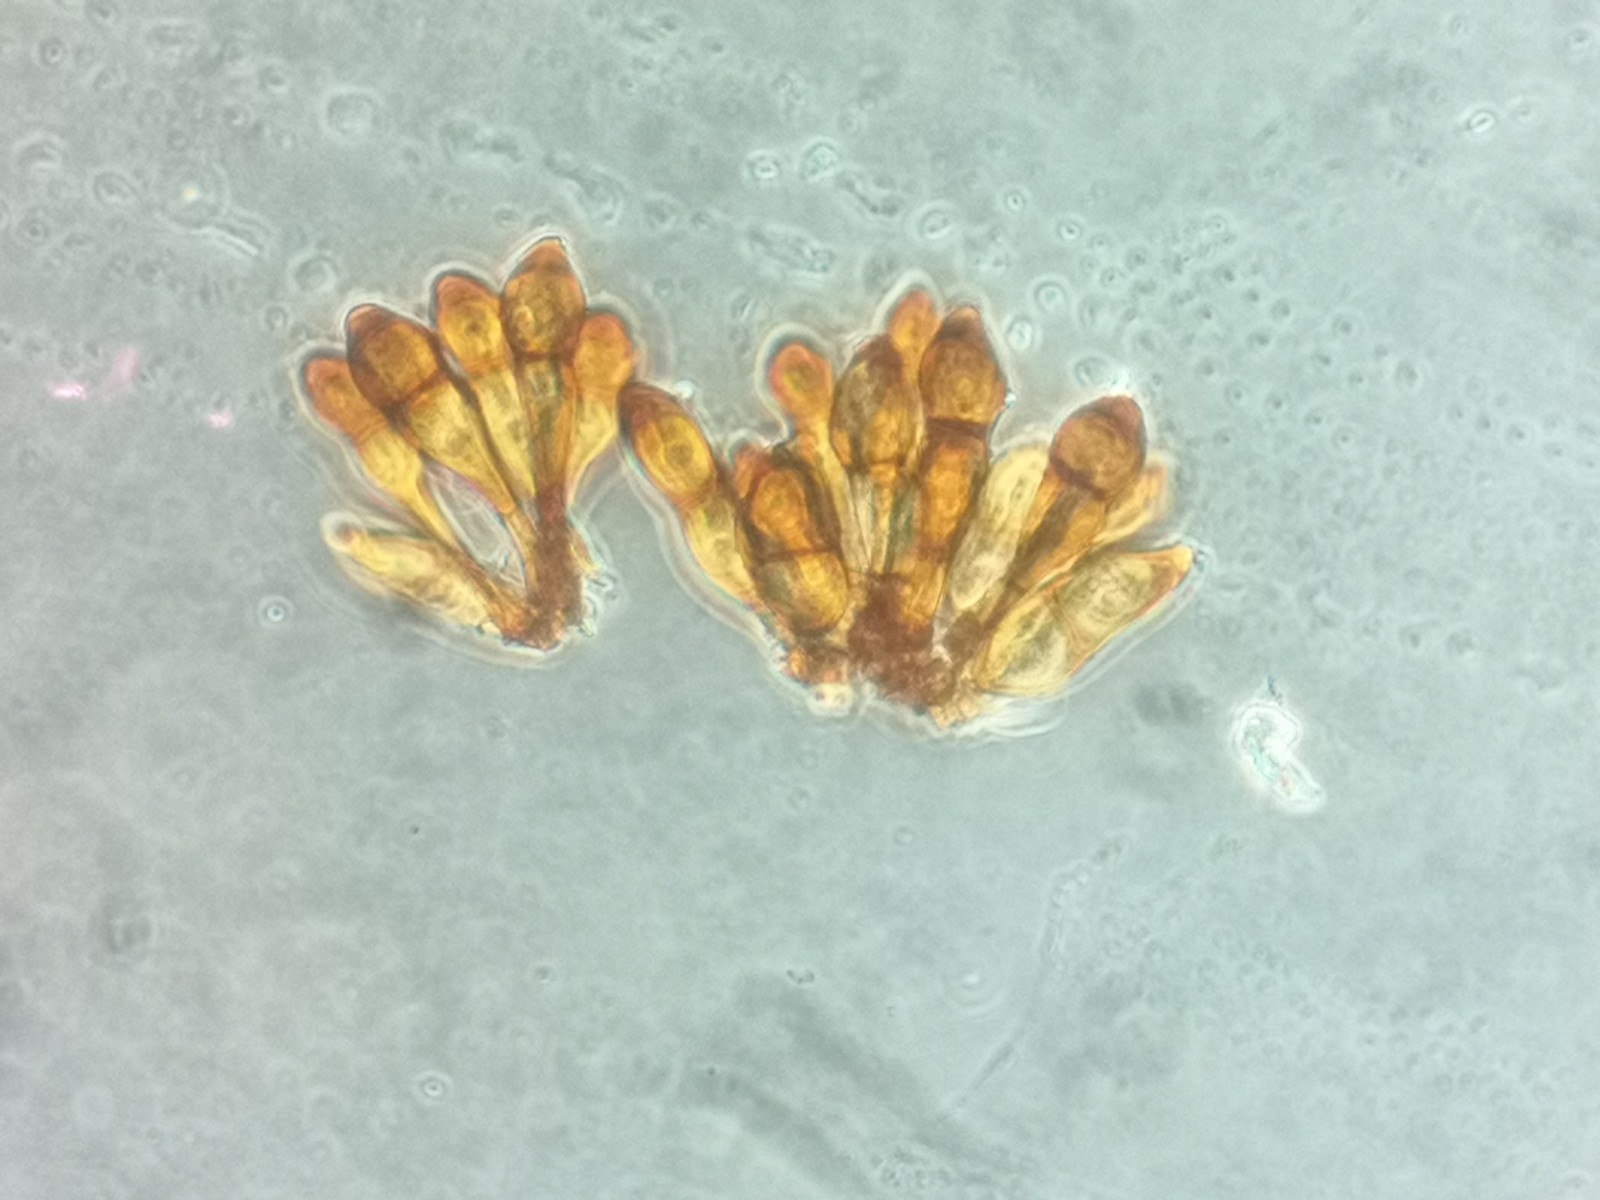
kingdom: Fungi
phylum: Basidiomycota
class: Pucciniomycetes
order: Pucciniales
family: Pucciniaceae
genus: Puccinia
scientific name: Puccinia magnusiana
